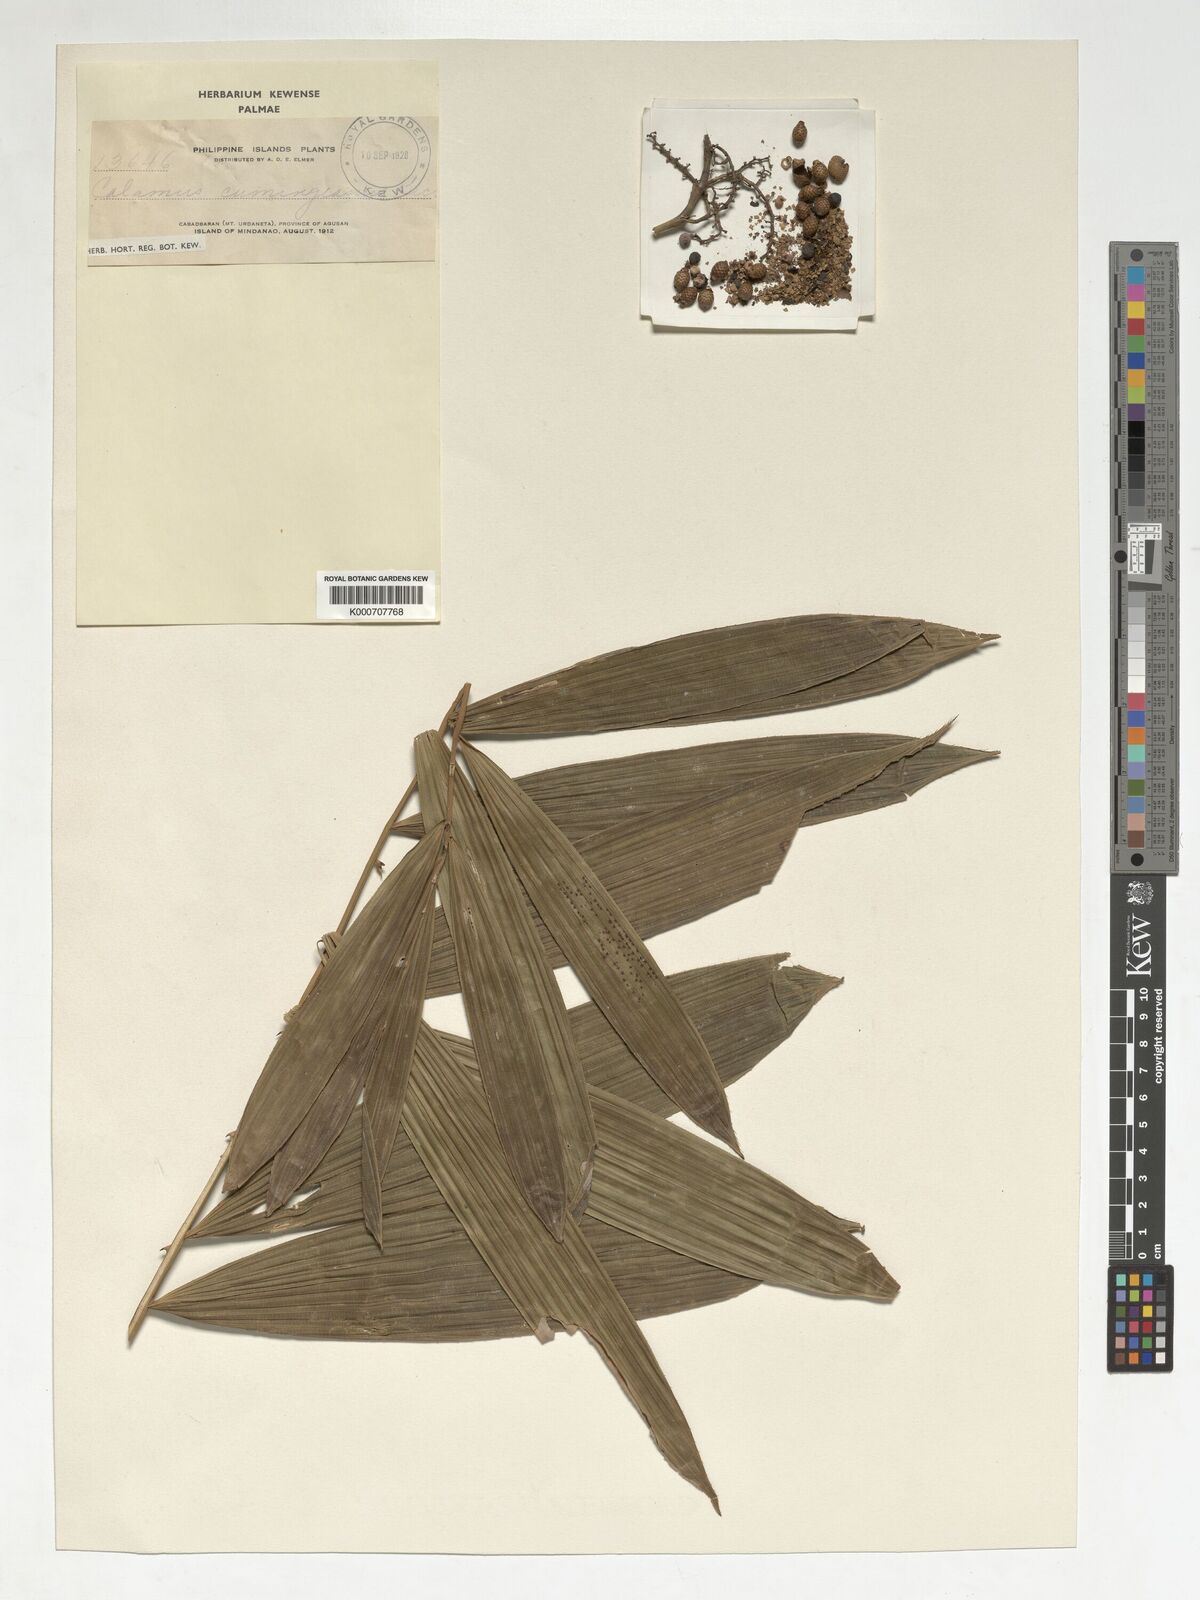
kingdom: Plantae
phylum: Tracheophyta
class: Liliopsida
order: Arecales
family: Arecaceae
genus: Calamus
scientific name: Calamus cumingianus
